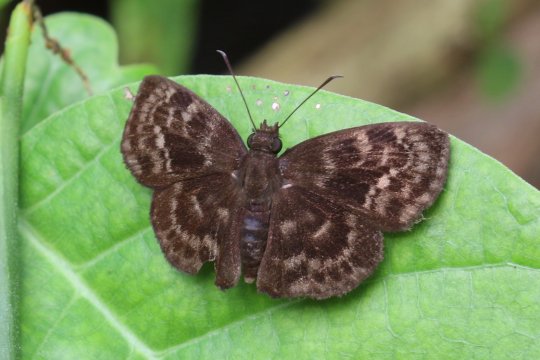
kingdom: Animalia
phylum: Arthropoda
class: Insecta
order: Lepidoptera
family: Hesperiidae
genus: Ouleus
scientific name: Ouleus fridericus
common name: Fridericus Spreadwing
